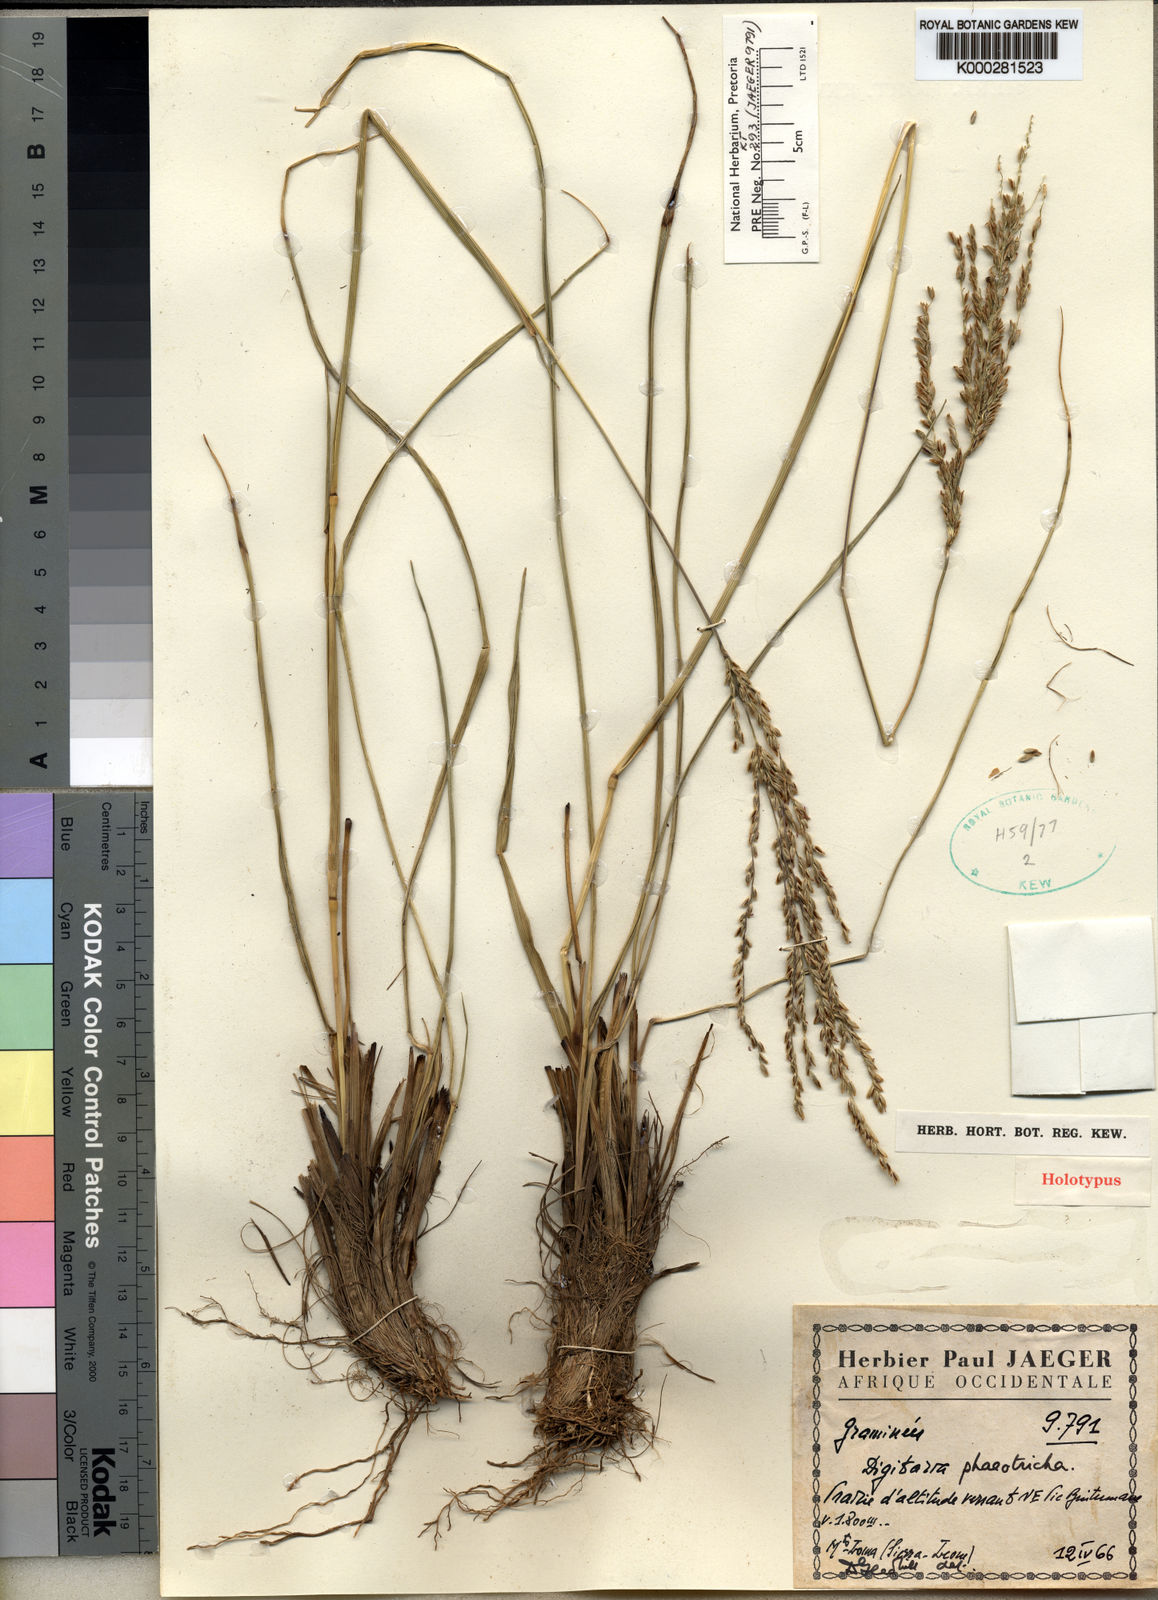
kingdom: Plantae
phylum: Tracheophyta
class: Liliopsida
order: Poales
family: Poaceae
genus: Digitaria
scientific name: Digitaria phaeotricha
